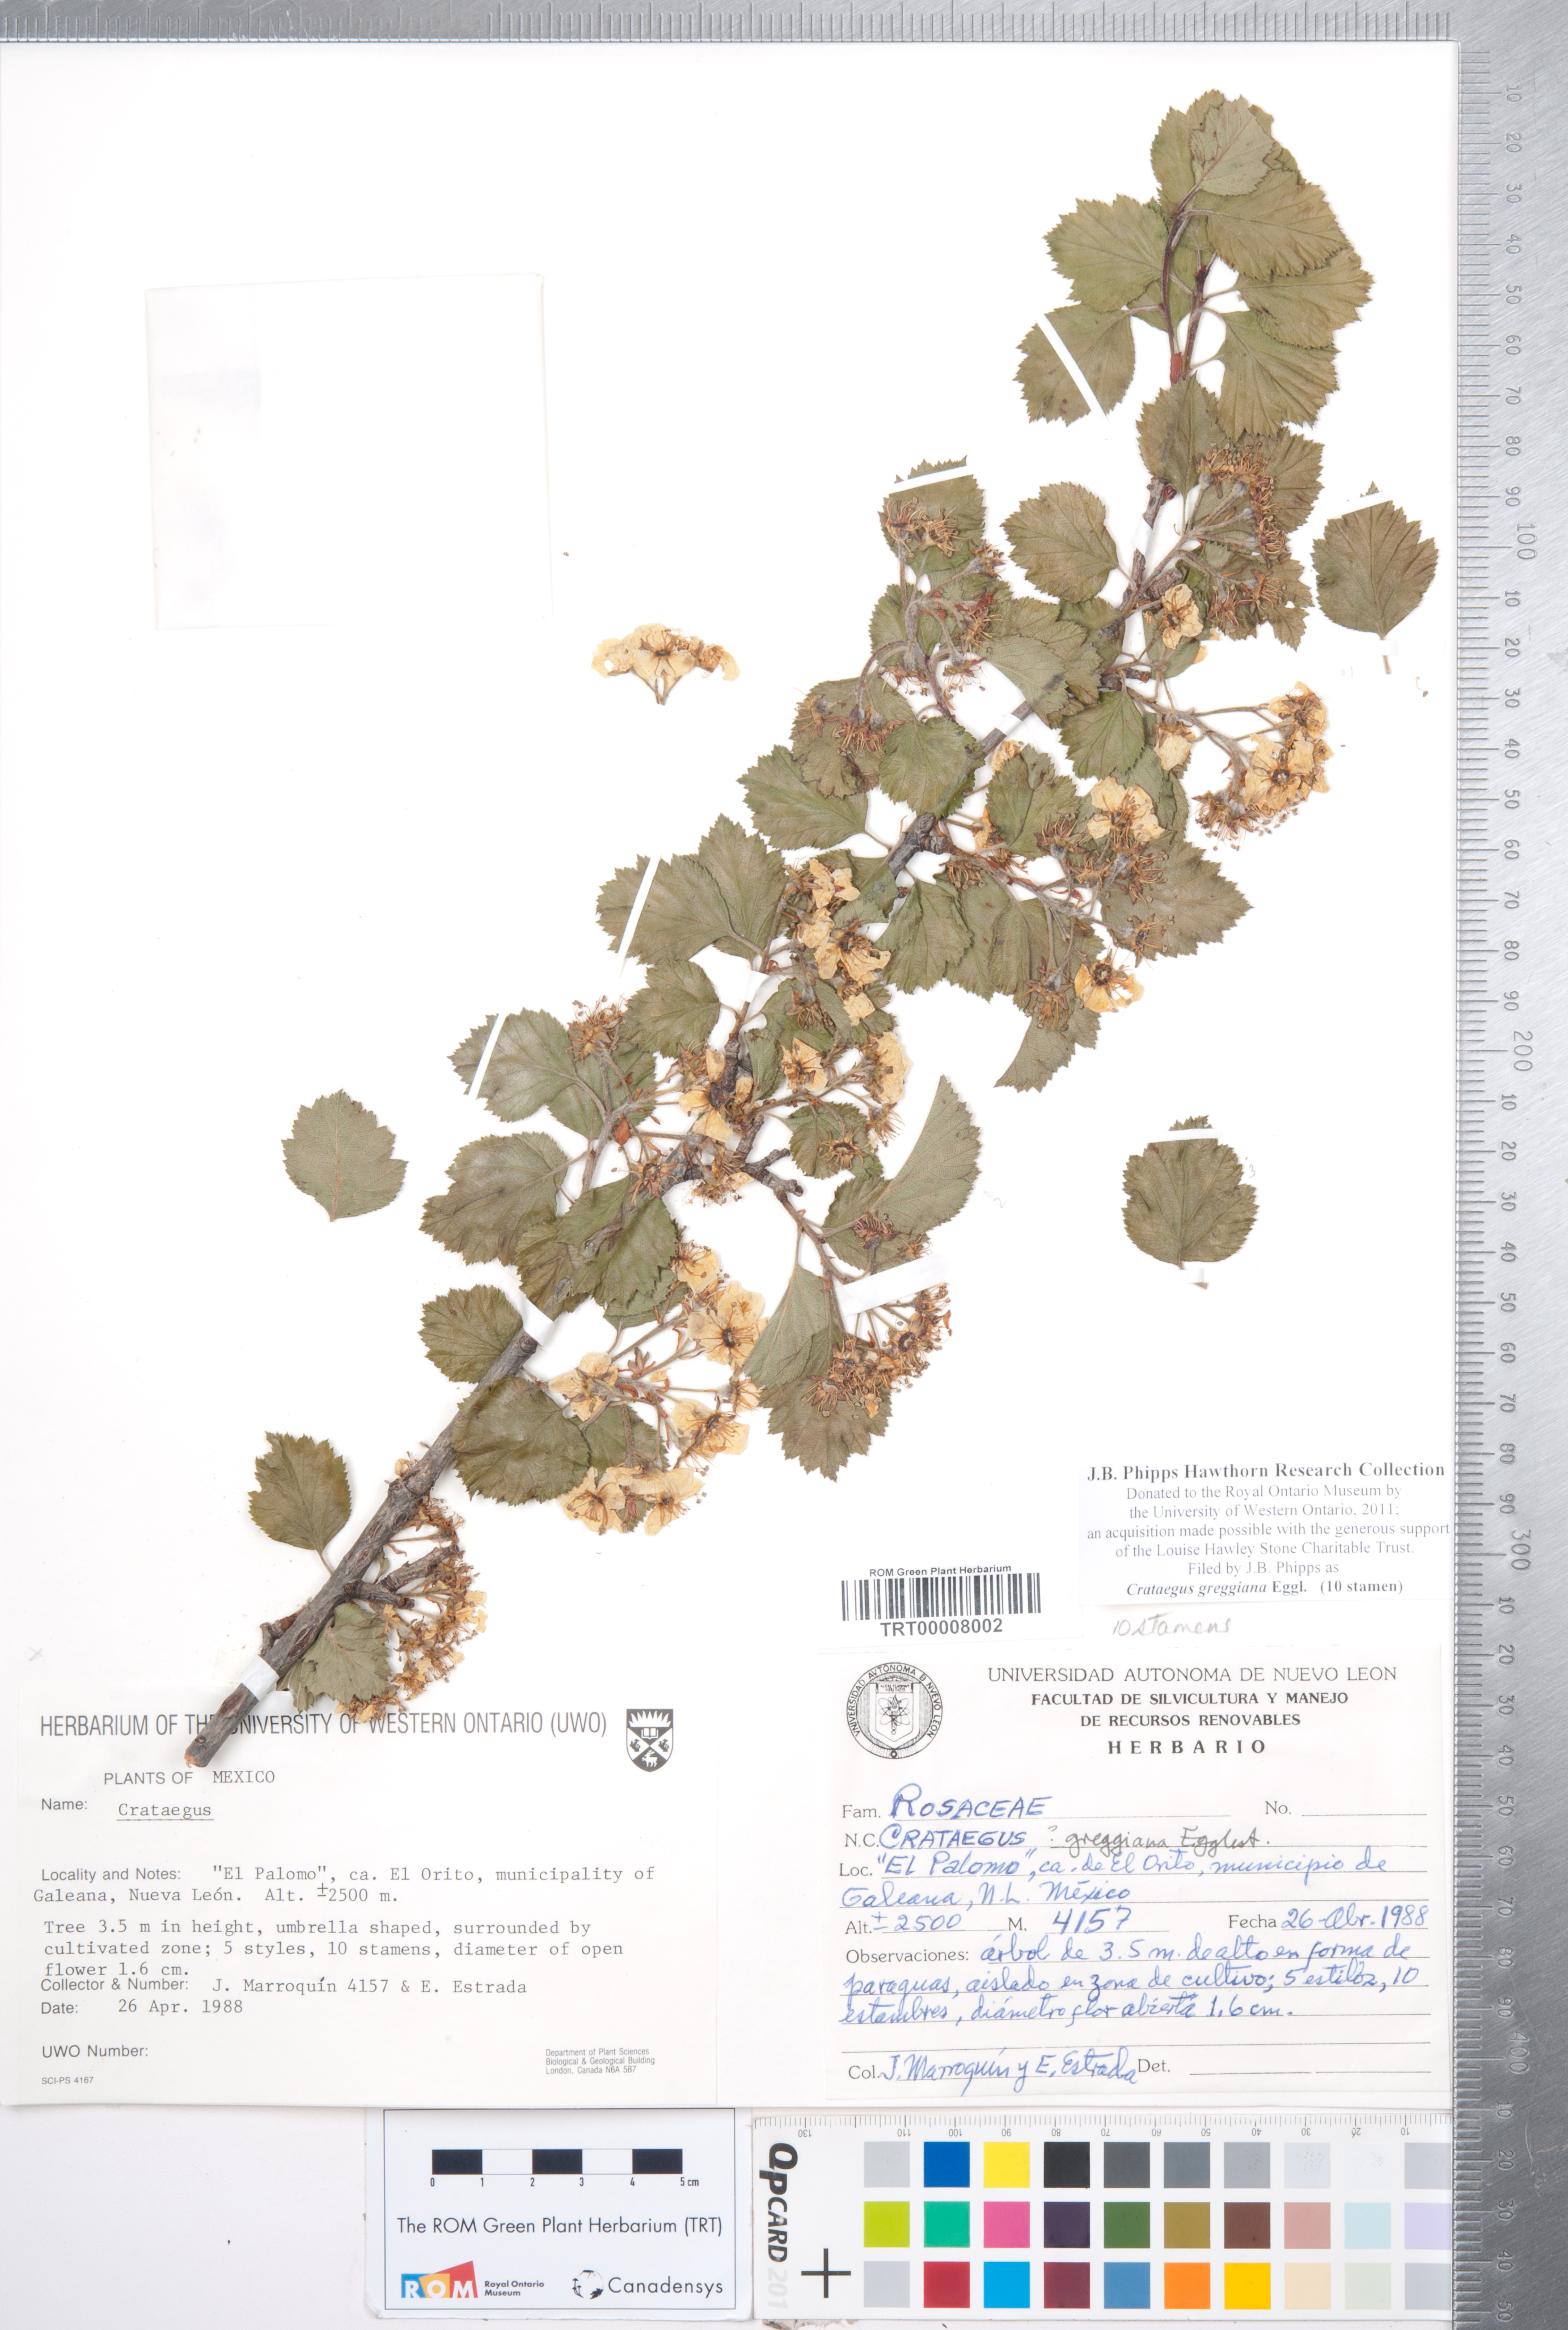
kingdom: Plantae
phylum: Tracheophyta
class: Magnoliopsida
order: Rosales
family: Rosaceae
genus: Crataegus
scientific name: Crataegus greggiana
